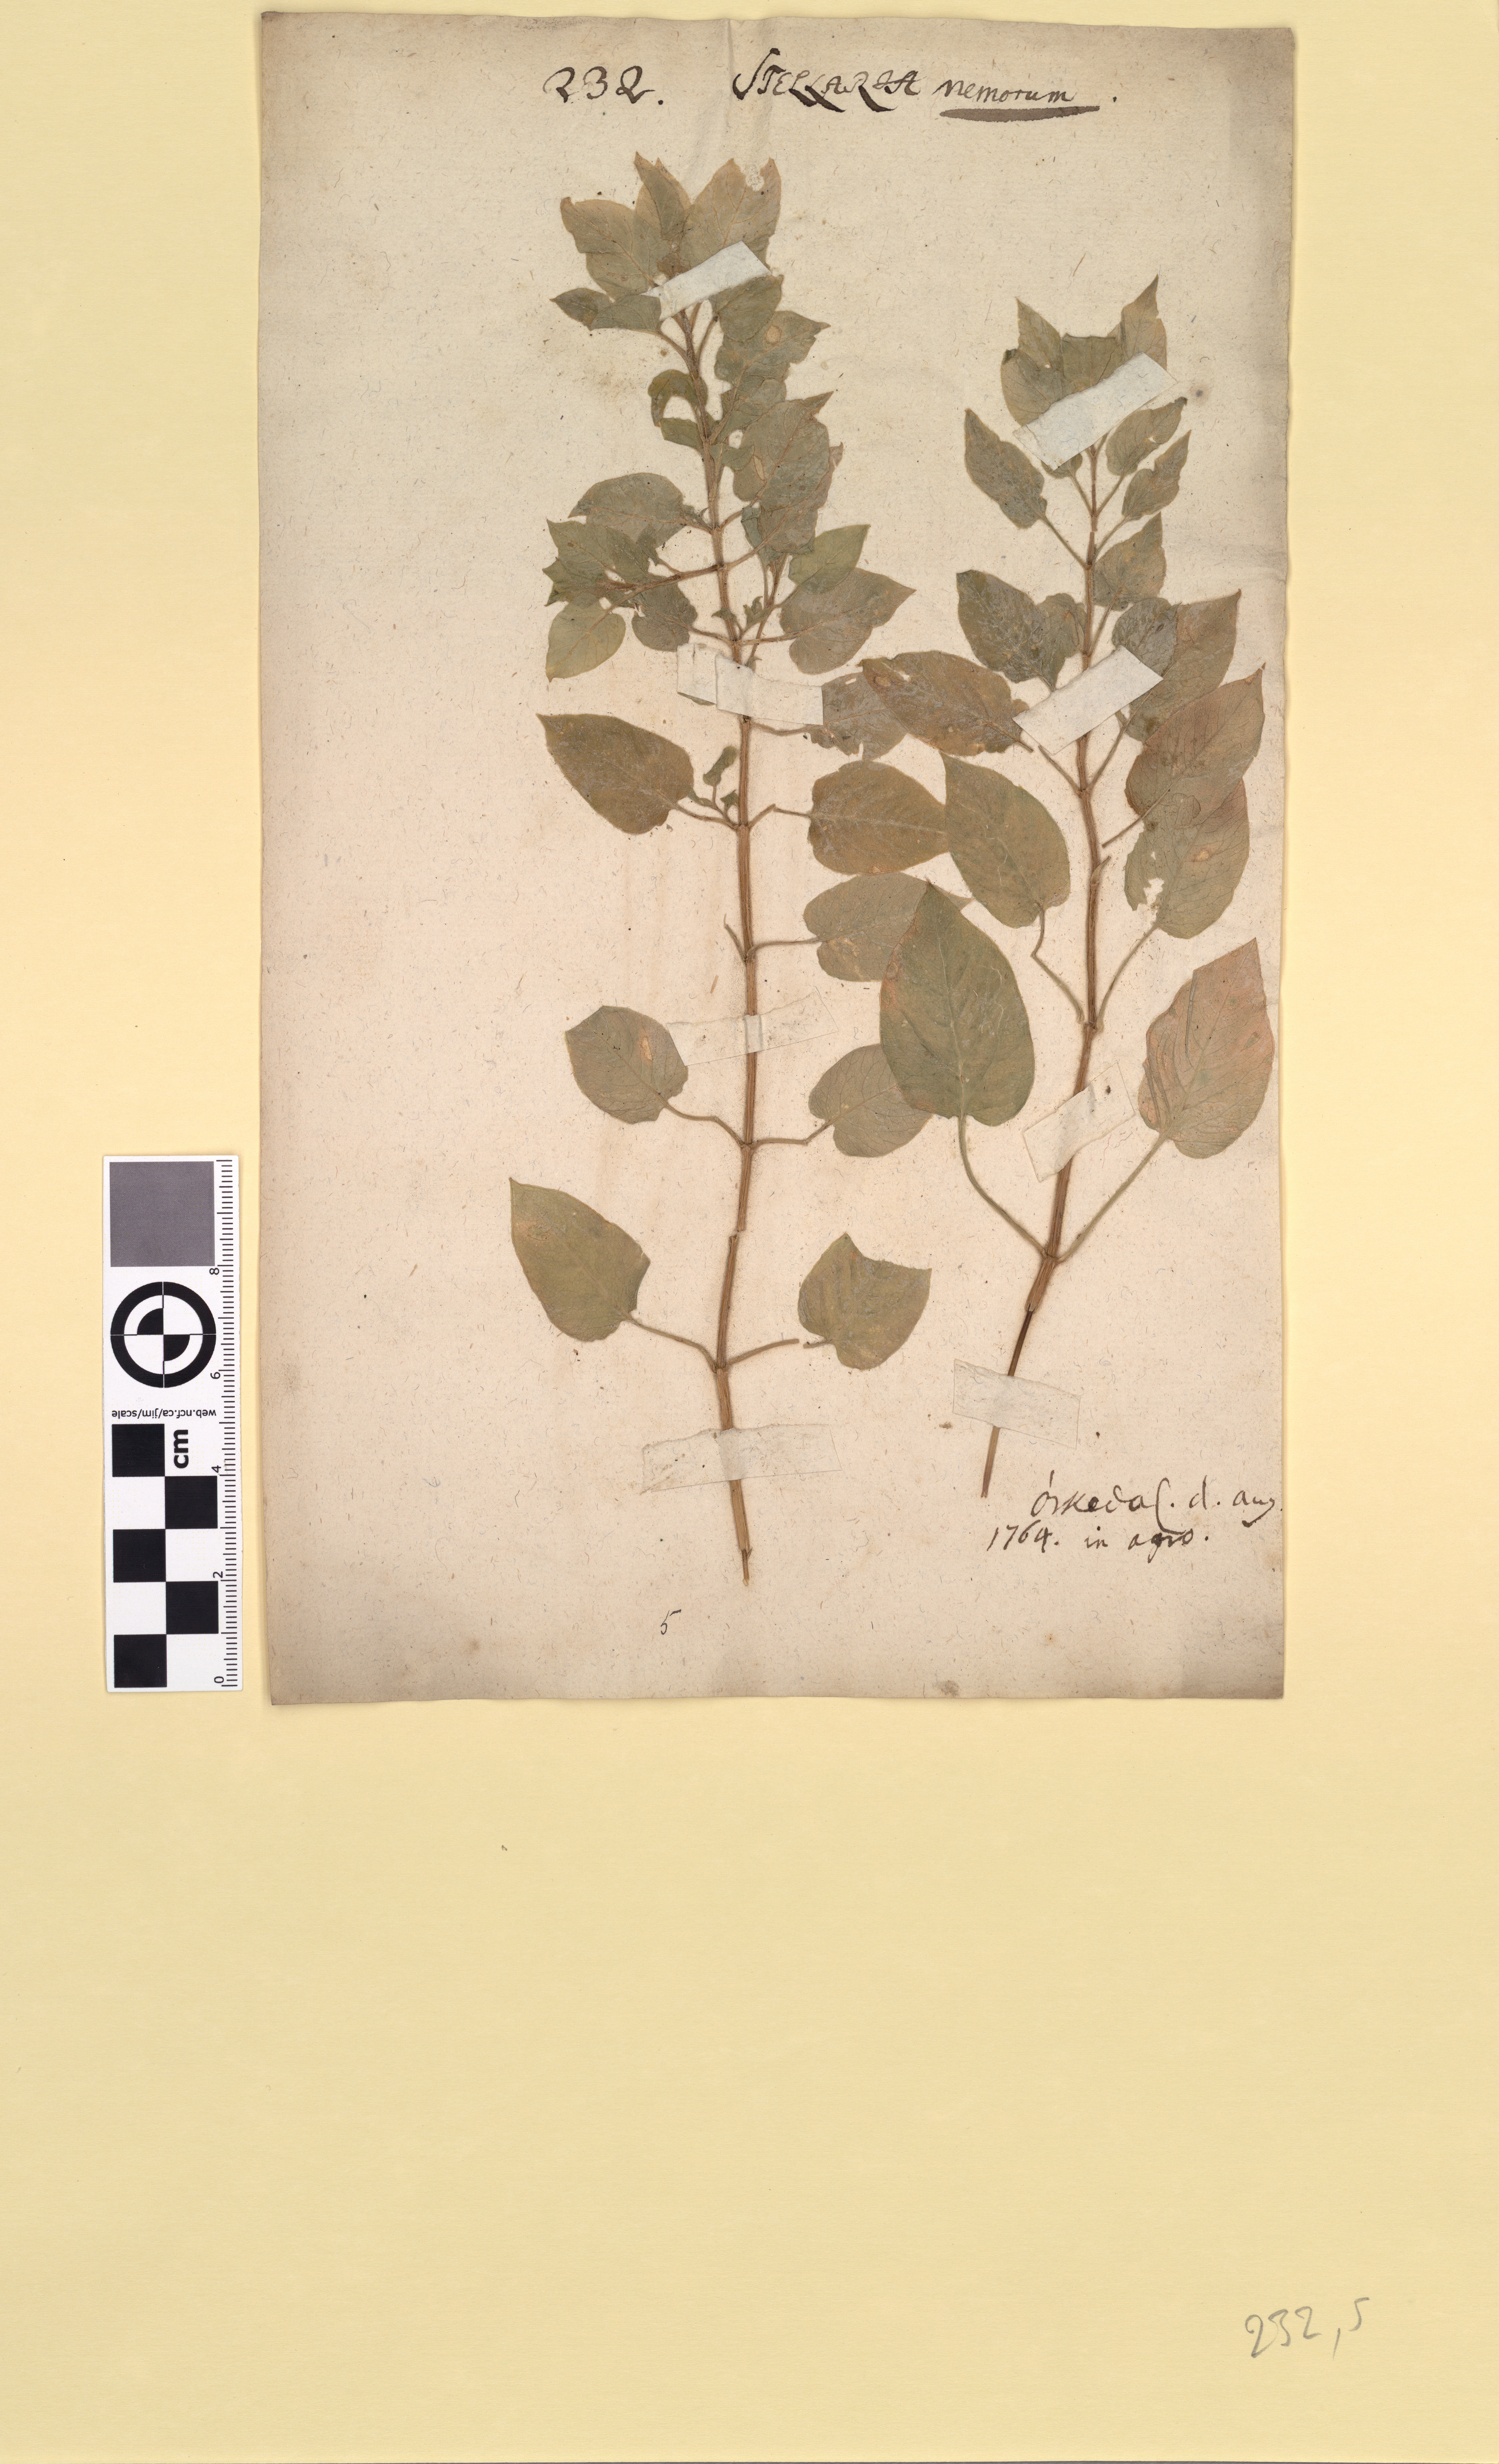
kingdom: Plantae
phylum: Tracheophyta
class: Magnoliopsida
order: Caryophyllales
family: Caryophyllaceae
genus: Stellaria
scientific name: Stellaria nemorum
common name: Wood stitchwort
